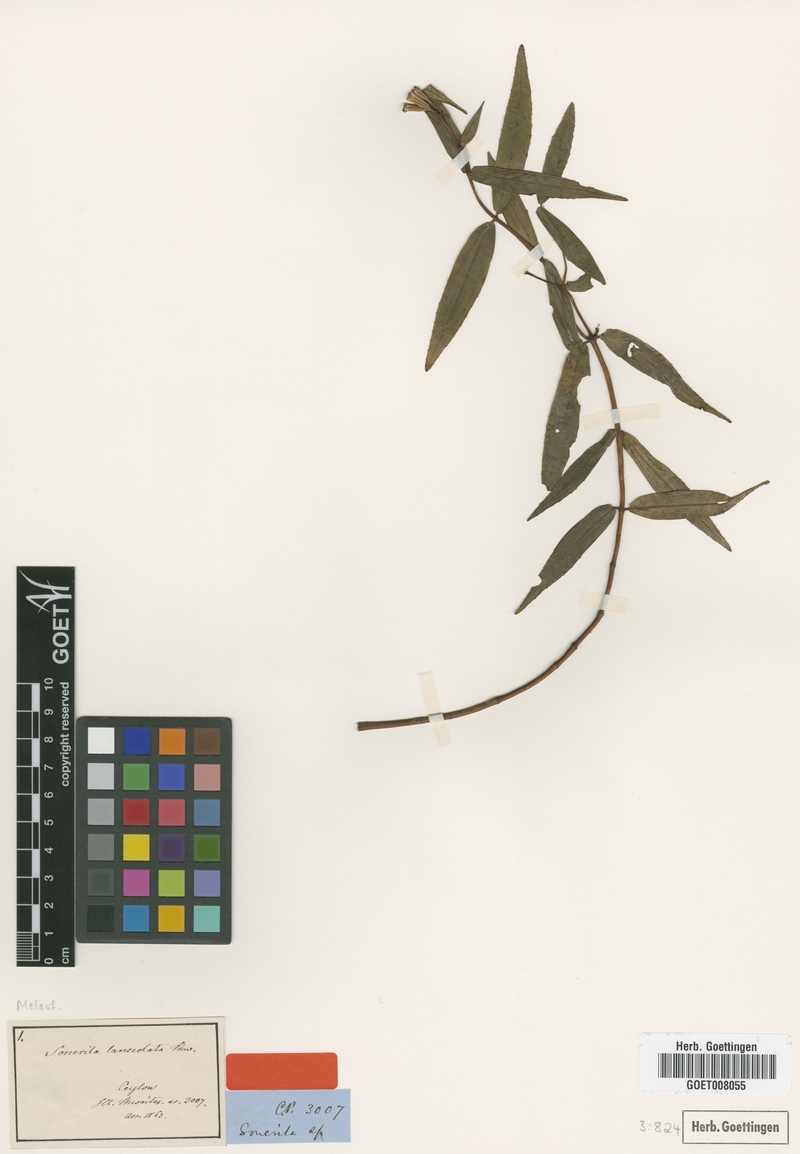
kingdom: Plantae
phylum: Tracheophyta
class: Magnoliopsida
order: Myrtales
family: Melastomataceae
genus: Sonerila
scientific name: Sonerila lanceolata
